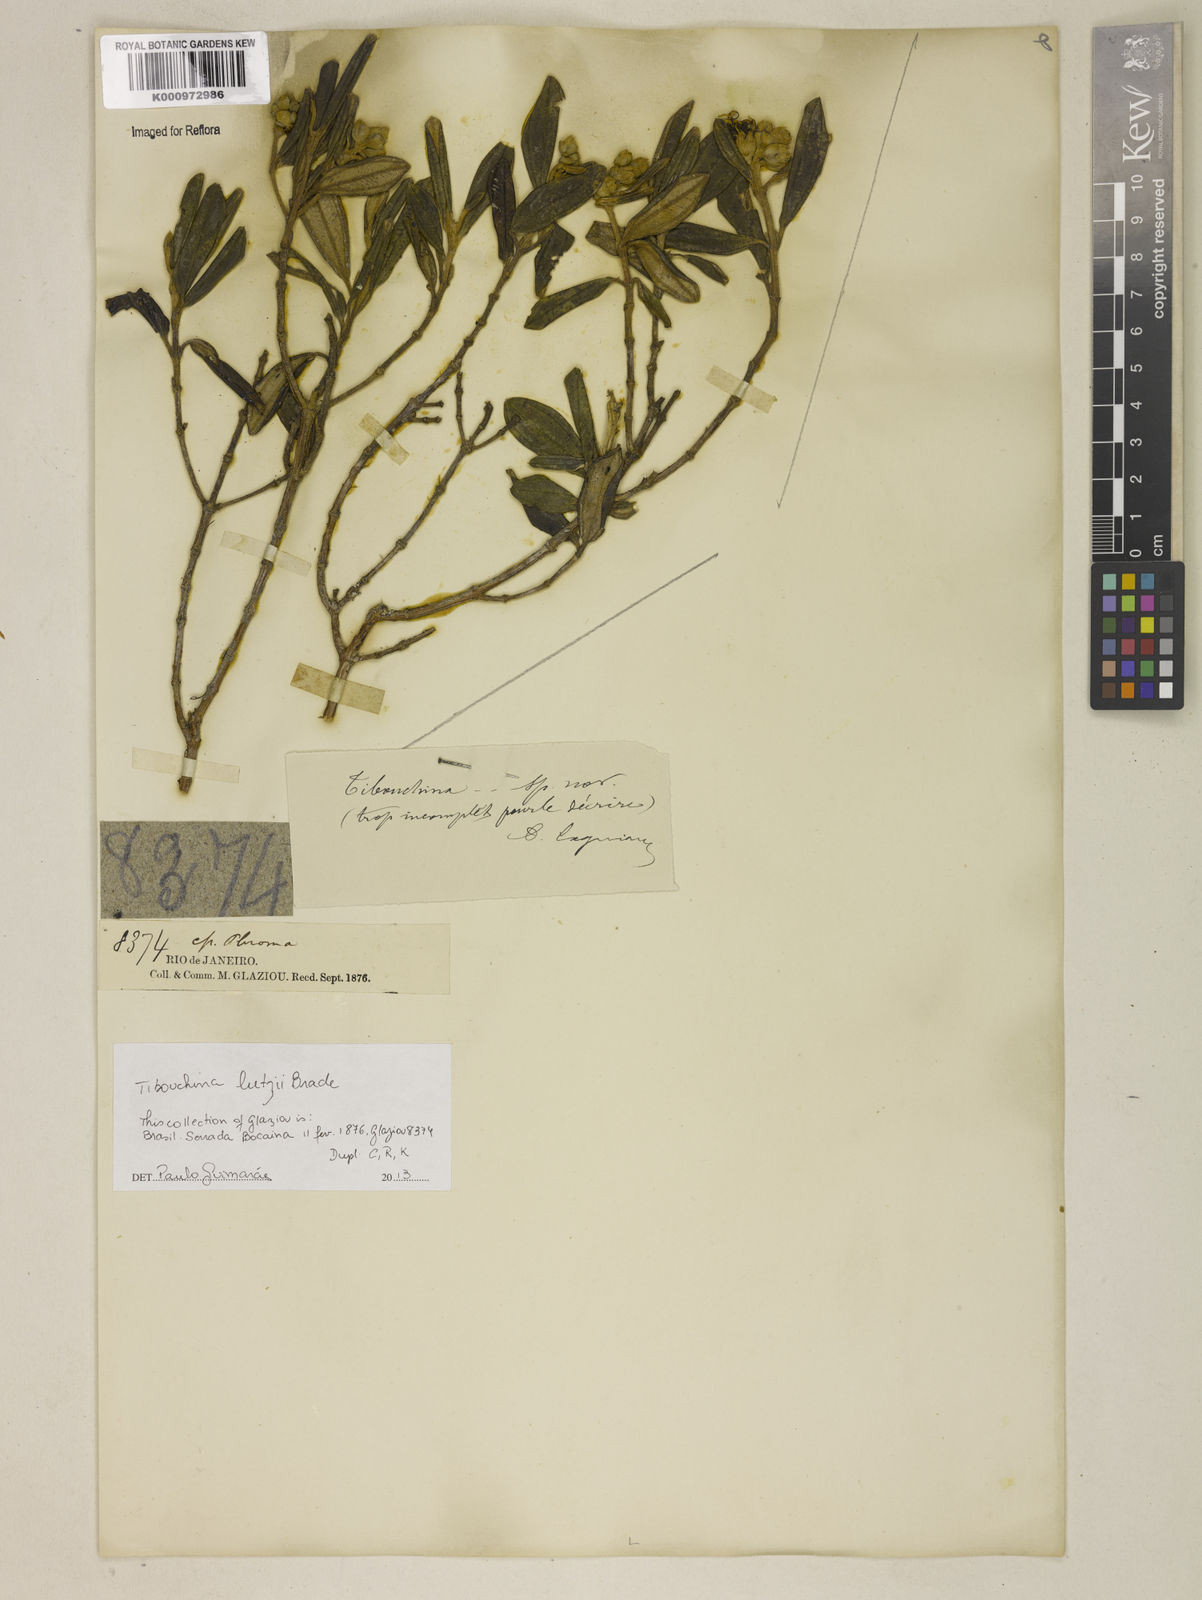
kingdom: Plantae
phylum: Tracheophyta
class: Magnoliopsida
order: Myrtales
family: Melastomataceae
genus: Pleroma
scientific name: Pleroma lutzii
